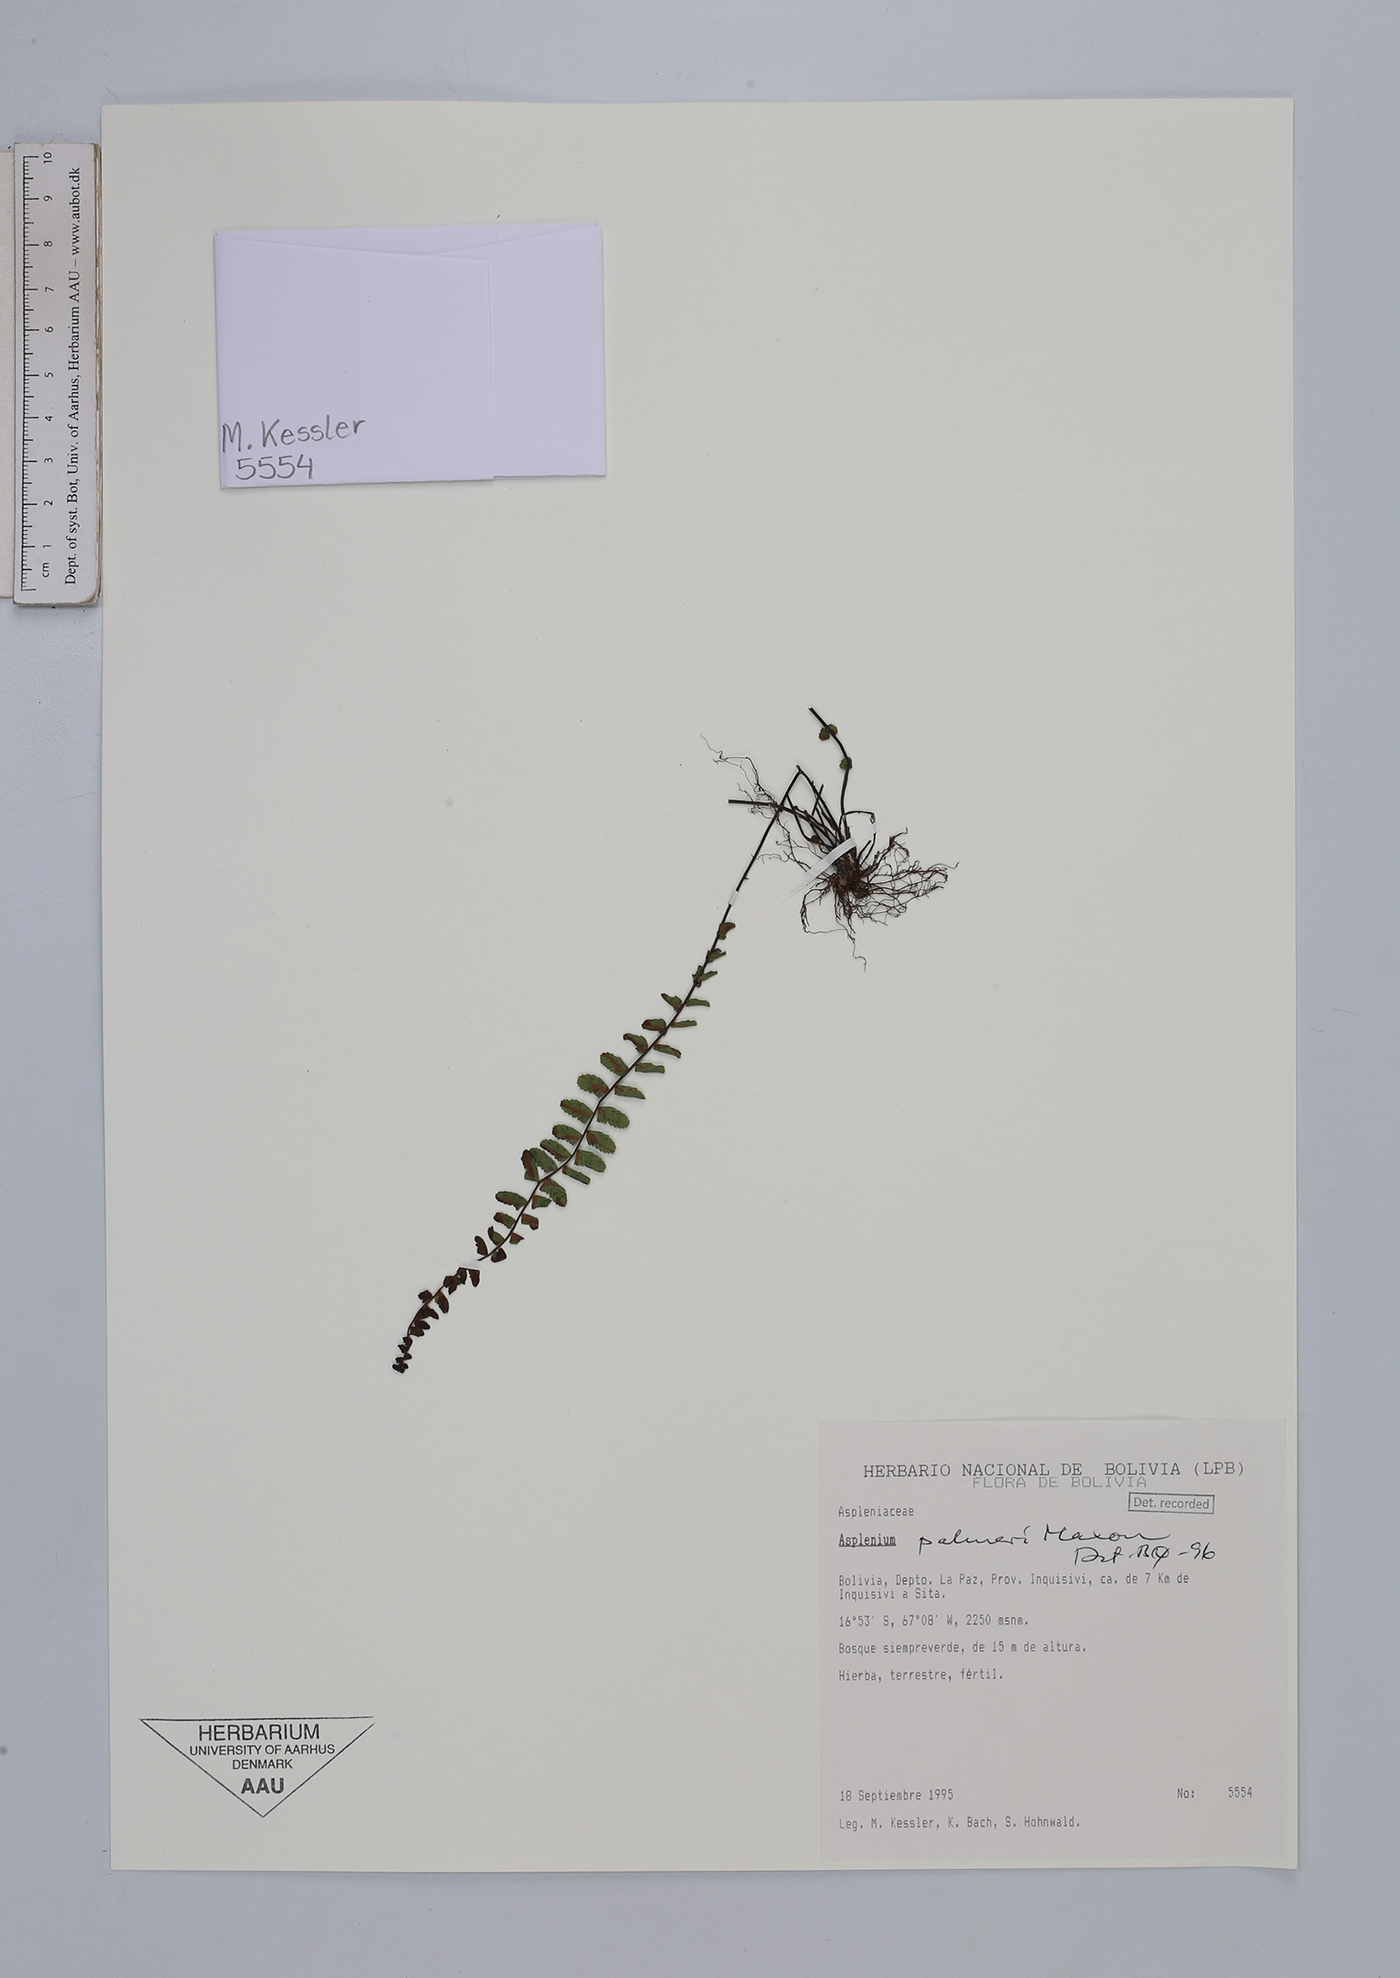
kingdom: Plantae
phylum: Tracheophyta
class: Polypodiopsida
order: Polypodiales
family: Aspleniaceae
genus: Asplenium
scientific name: Asplenium palmeri
